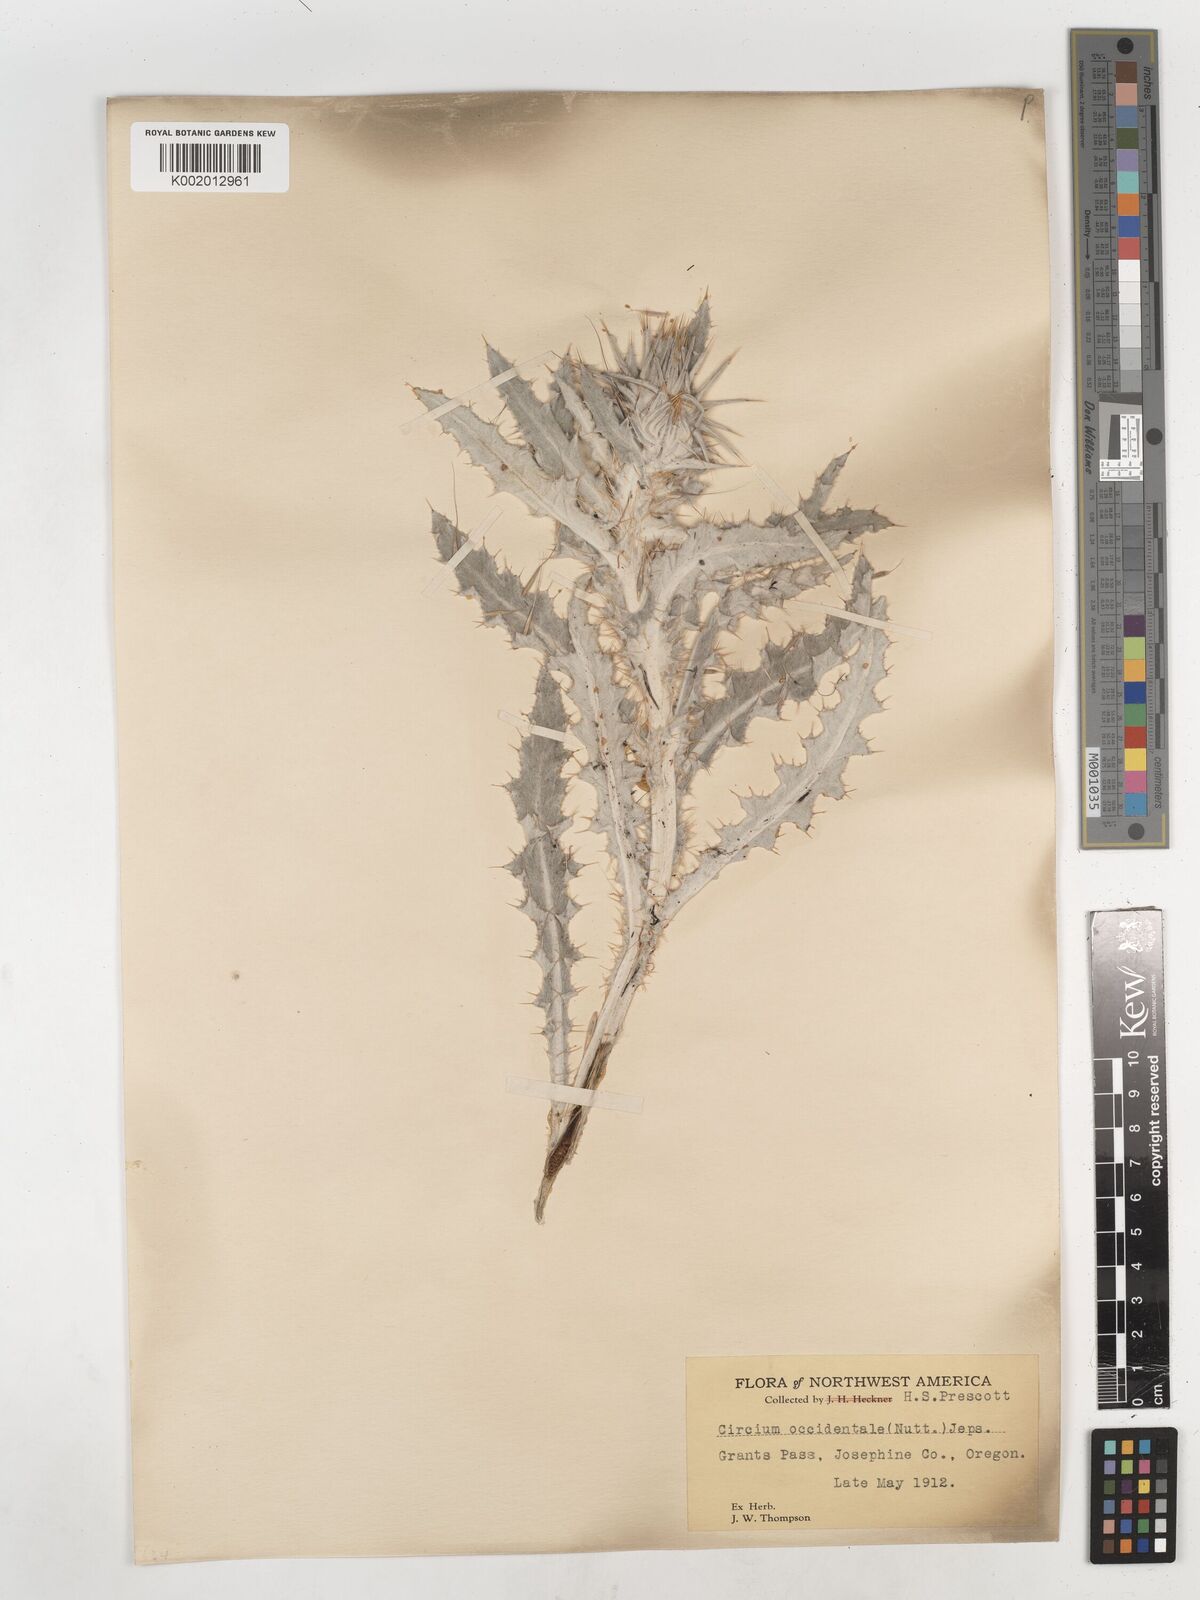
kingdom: Plantae
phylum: Tracheophyta
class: Magnoliopsida
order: Asterales
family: Asteraceae
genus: Cirsium
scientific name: Cirsium occidentale
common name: Western thistle
